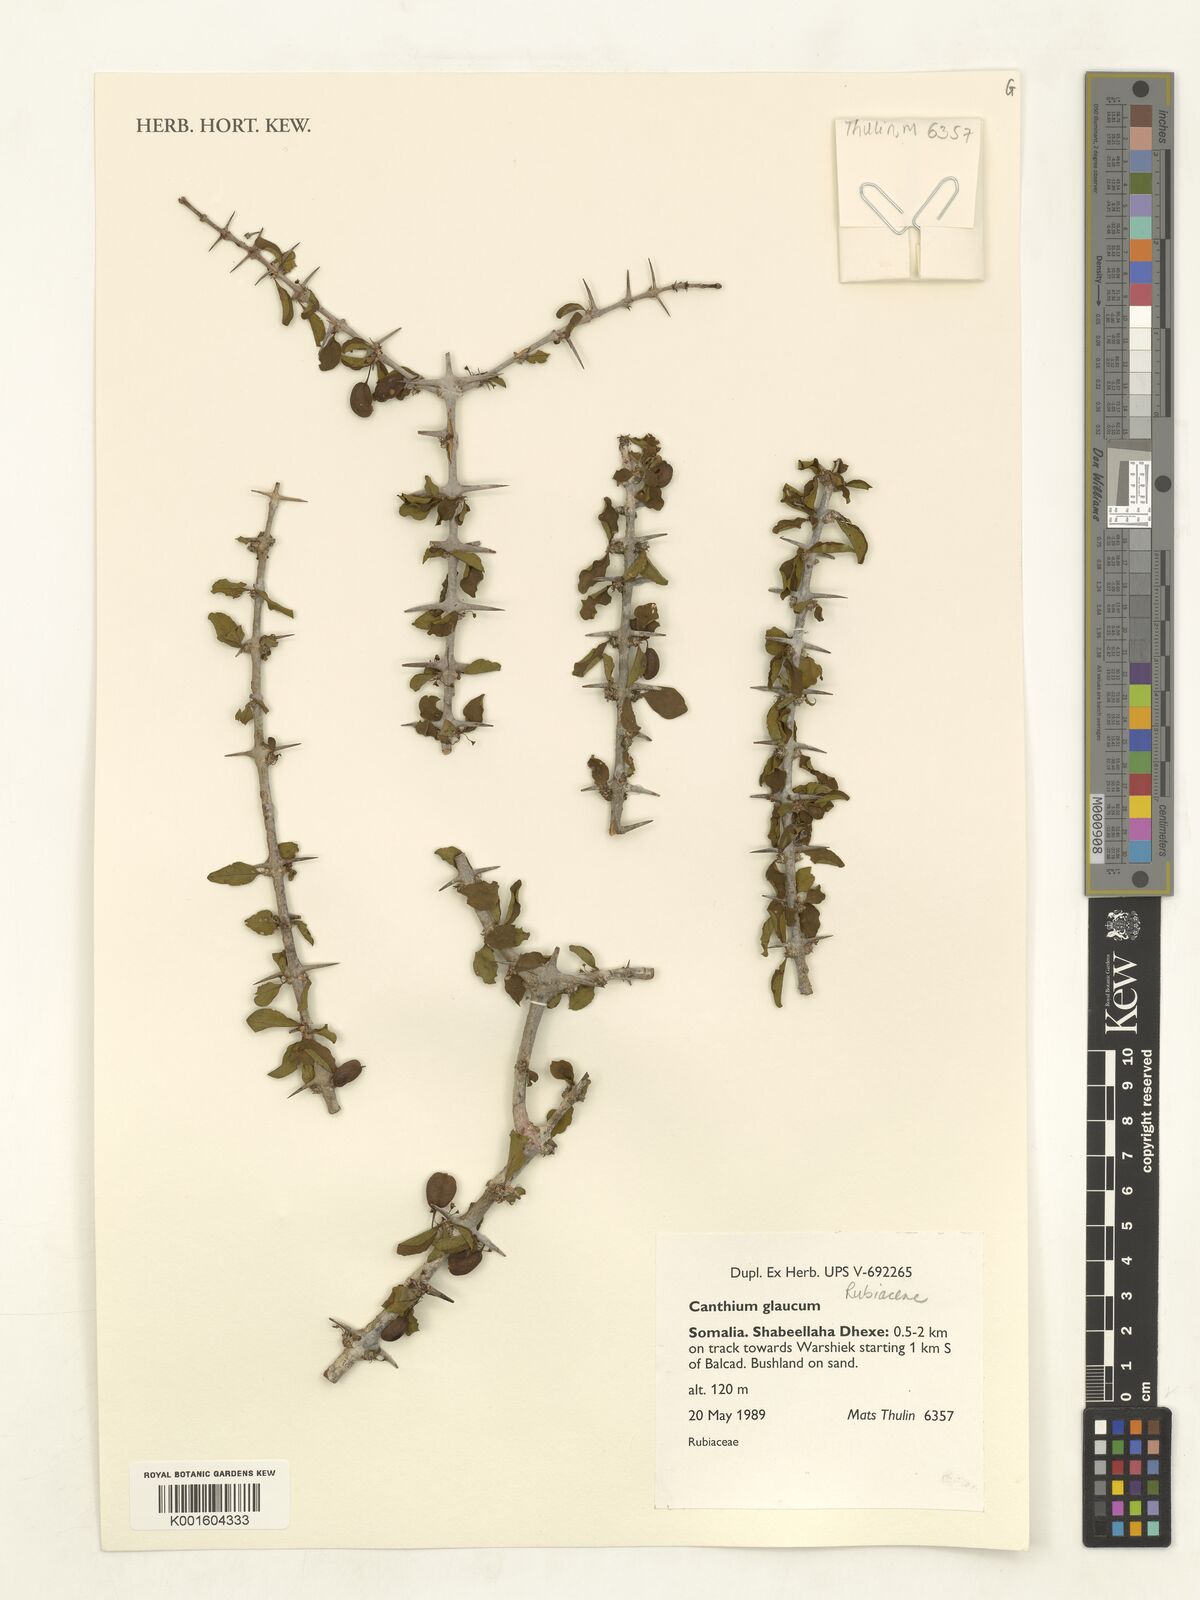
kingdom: Plantae
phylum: Tracheophyta
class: Magnoliopsida
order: Gentianales
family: Rubiaceae
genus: Canthium
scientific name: Canthium glaucum
